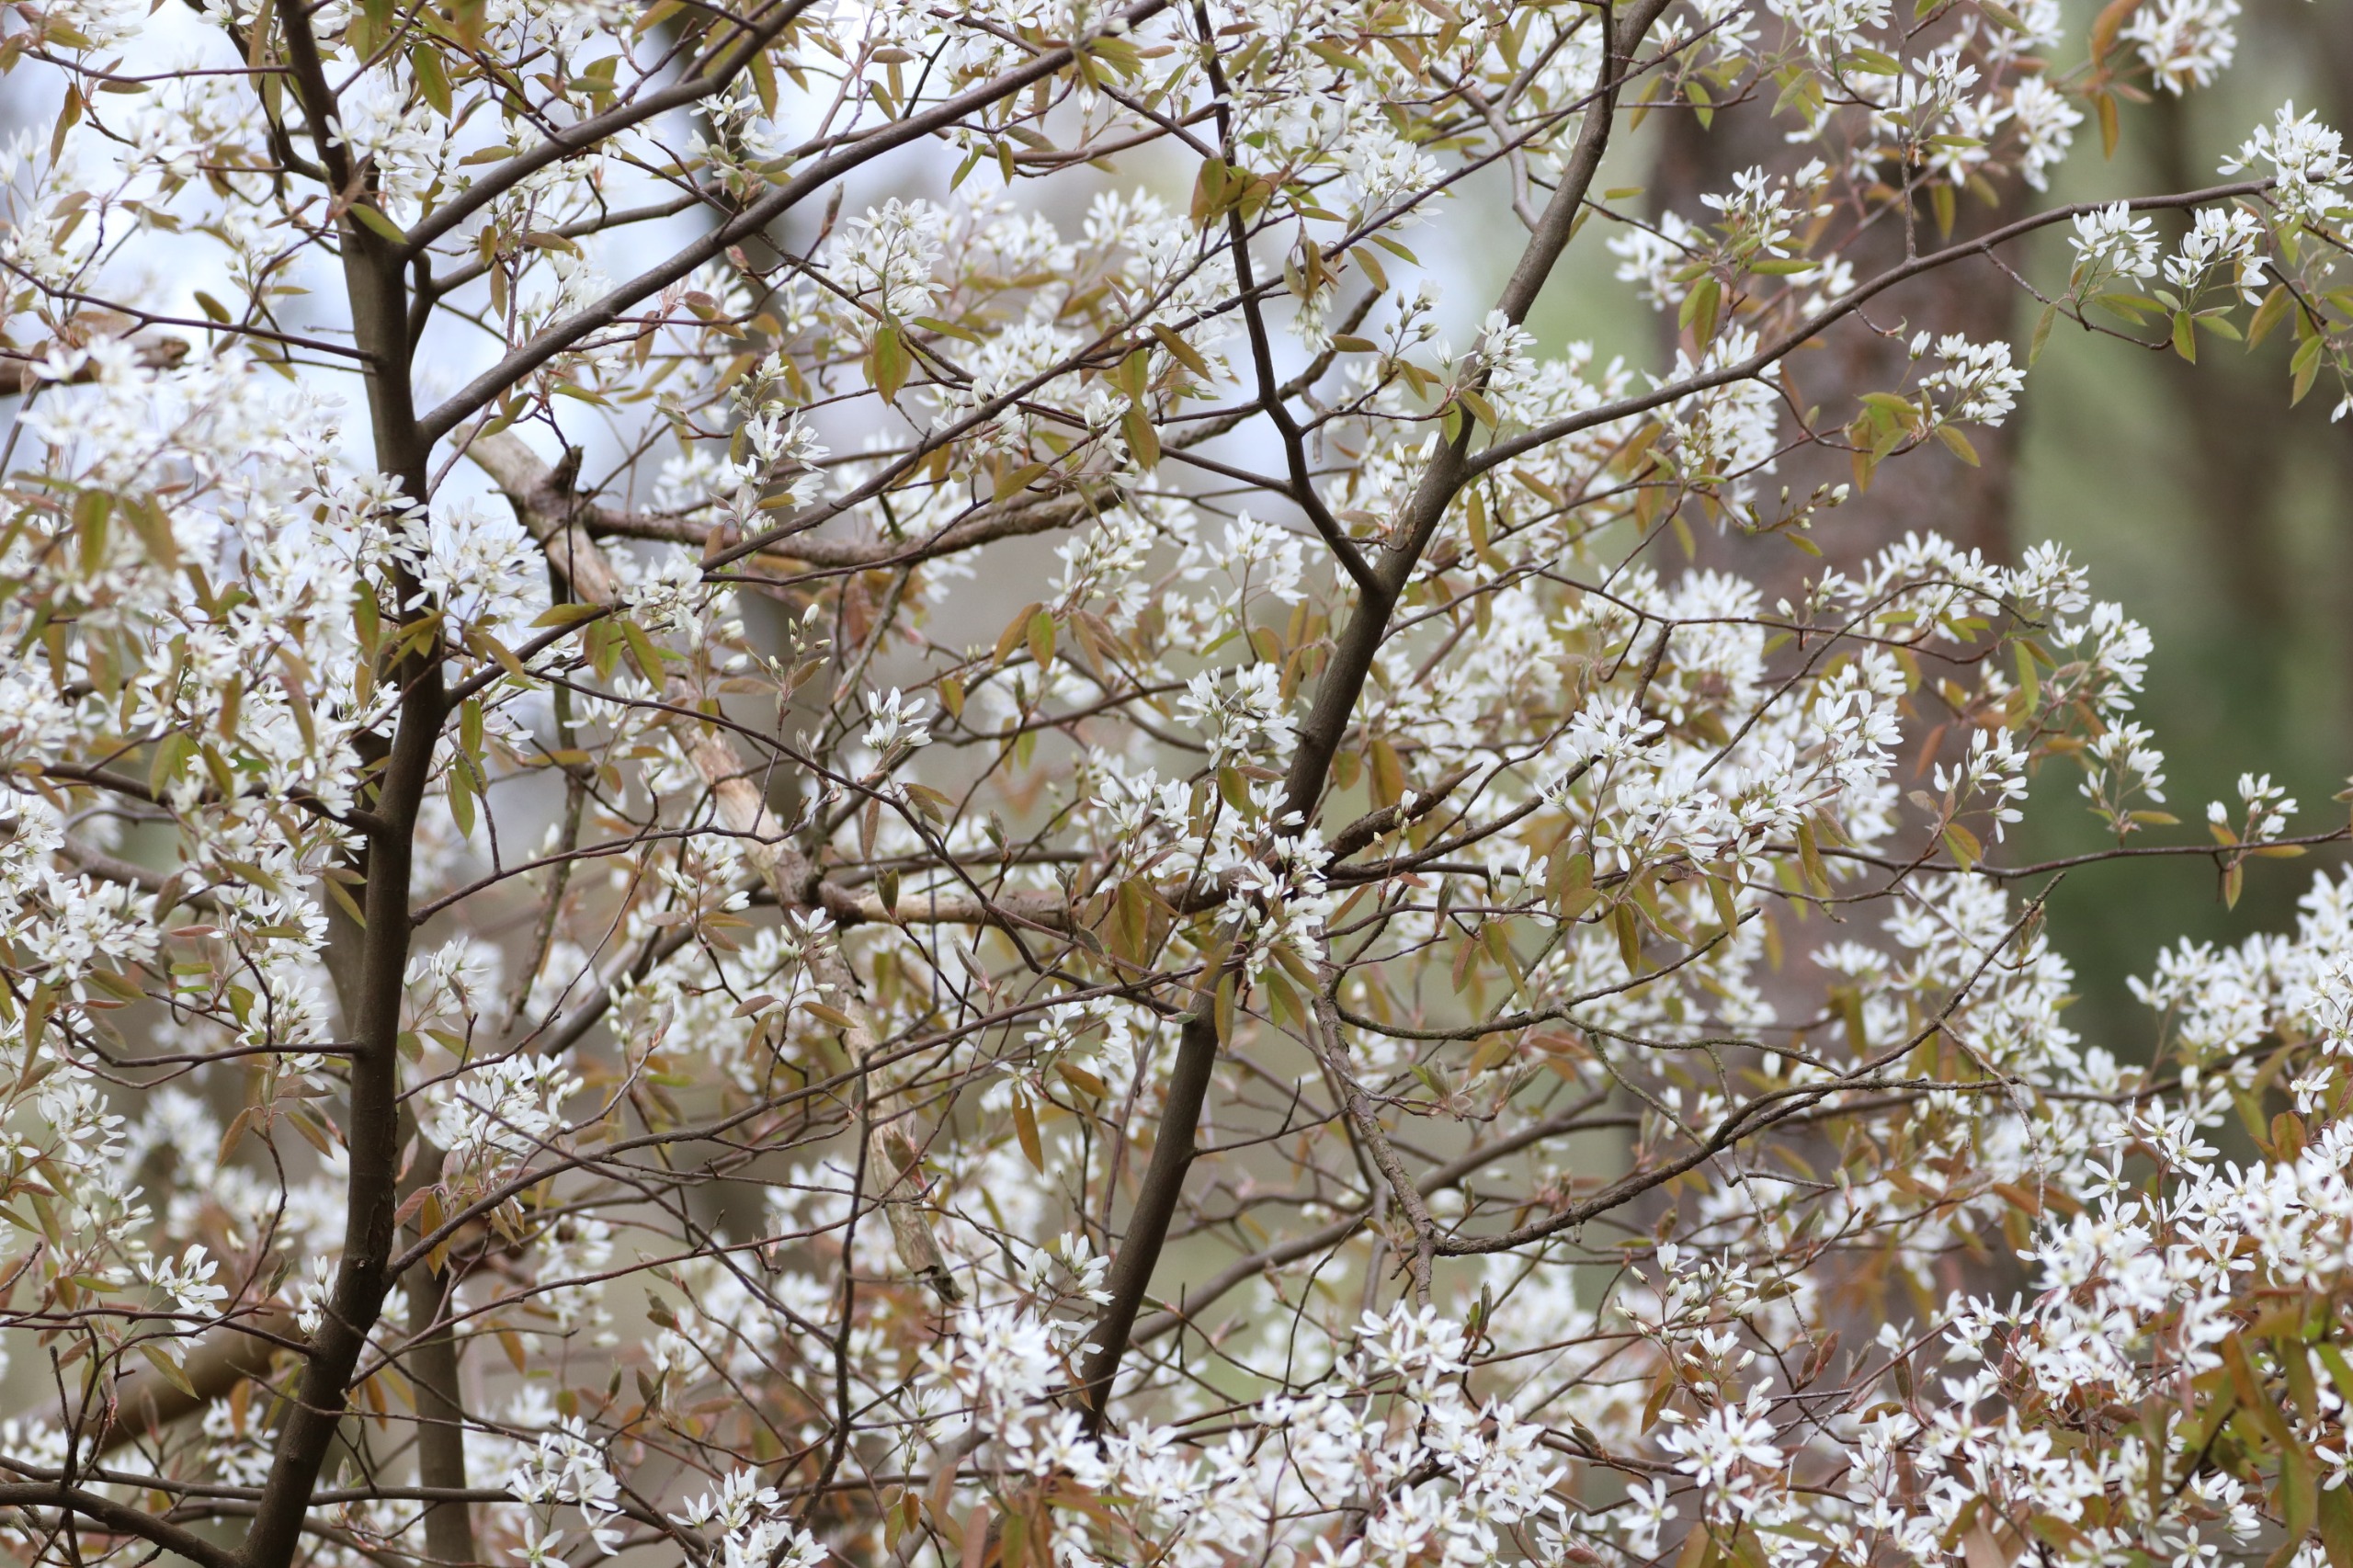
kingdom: Plantae
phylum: Tracheophyta
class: Magnoliopsida
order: Rosales
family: Rosaceae
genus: Amelanchier
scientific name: Amelanchier lamarckii
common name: Bærmispel
